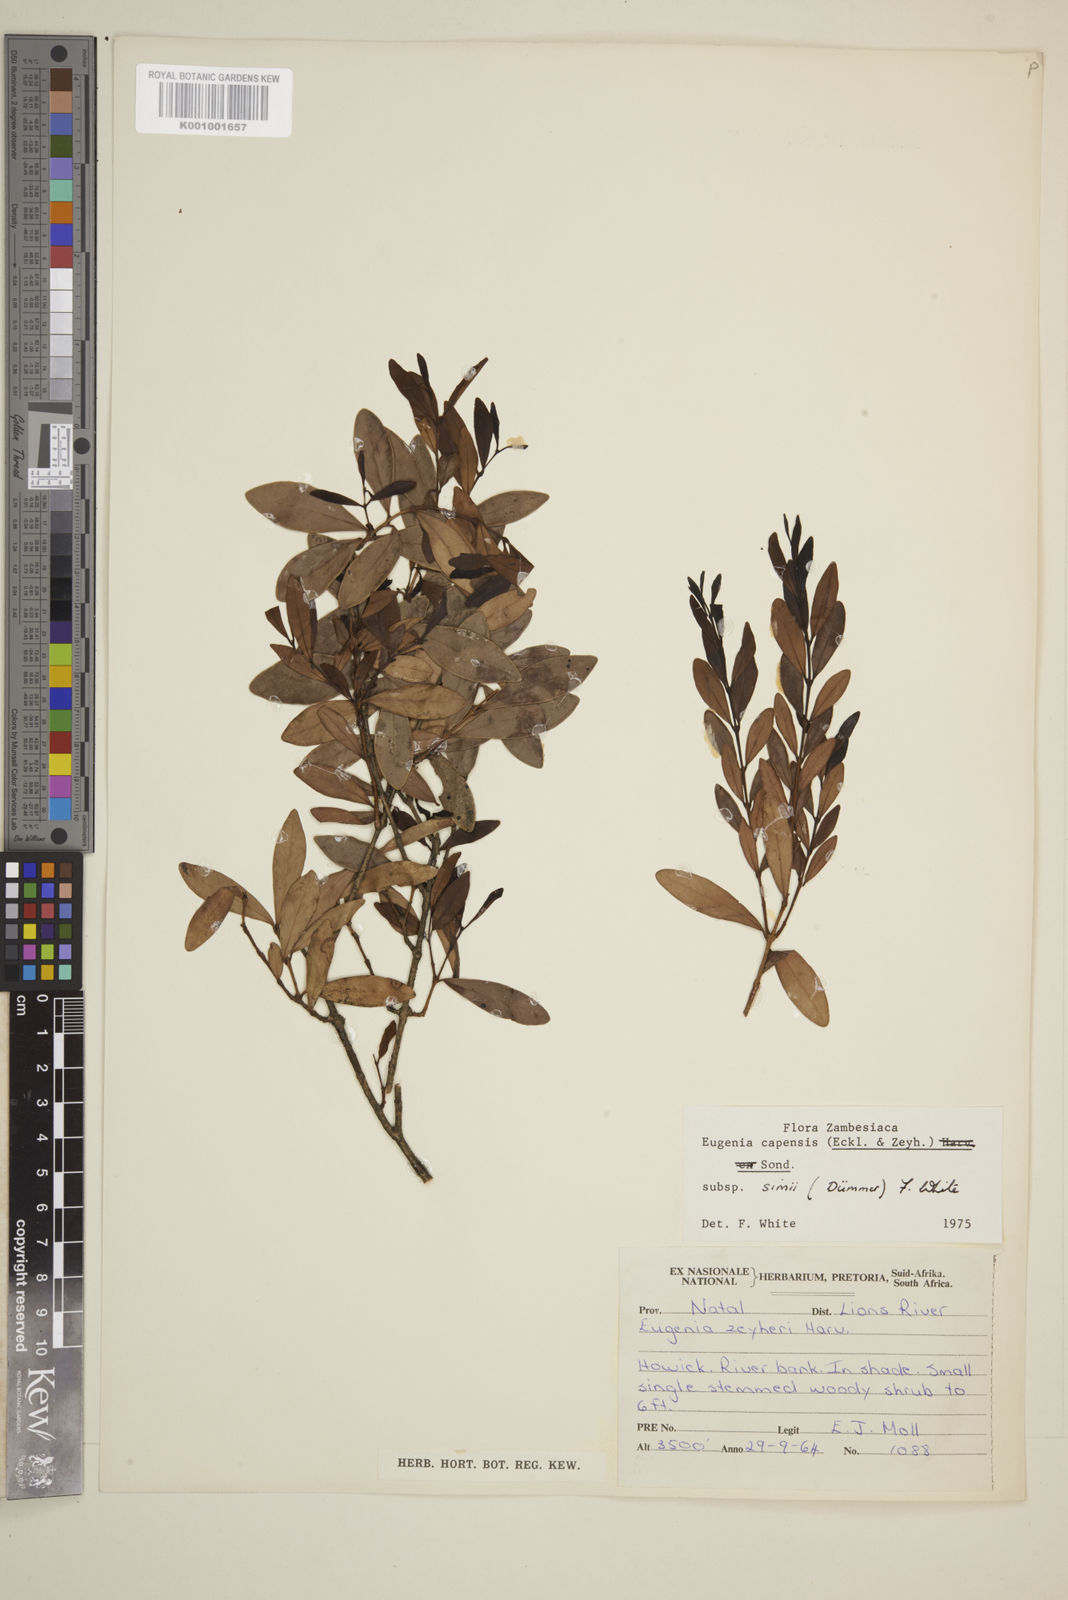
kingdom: Plantae
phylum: Tracheophyta
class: Magnoliopsida
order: Myrtales
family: Myrtaceae
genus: Eugenia
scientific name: Eugenia simii
